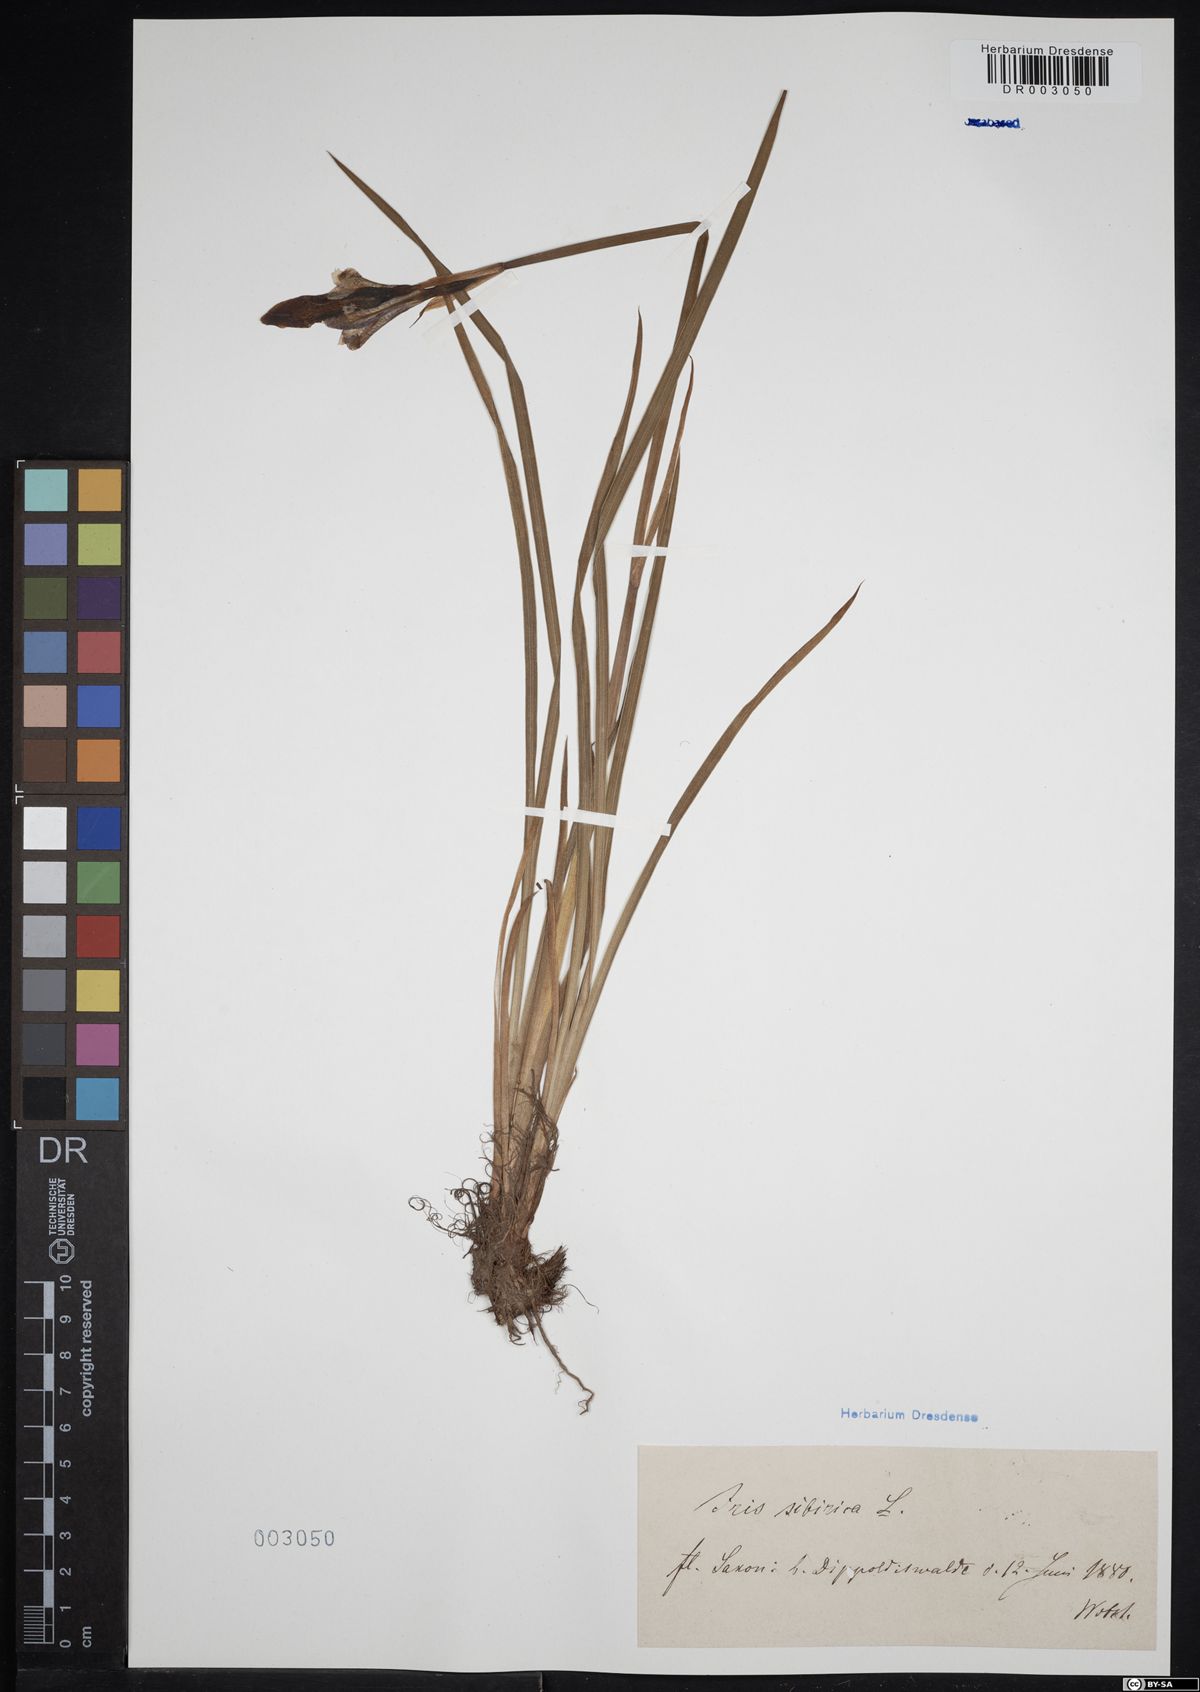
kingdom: Plantae
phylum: Tracheophyta
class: Liliopsida
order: Asparagales
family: Iridaceae
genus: Iris
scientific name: Iris sibirica
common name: Siberian iris
